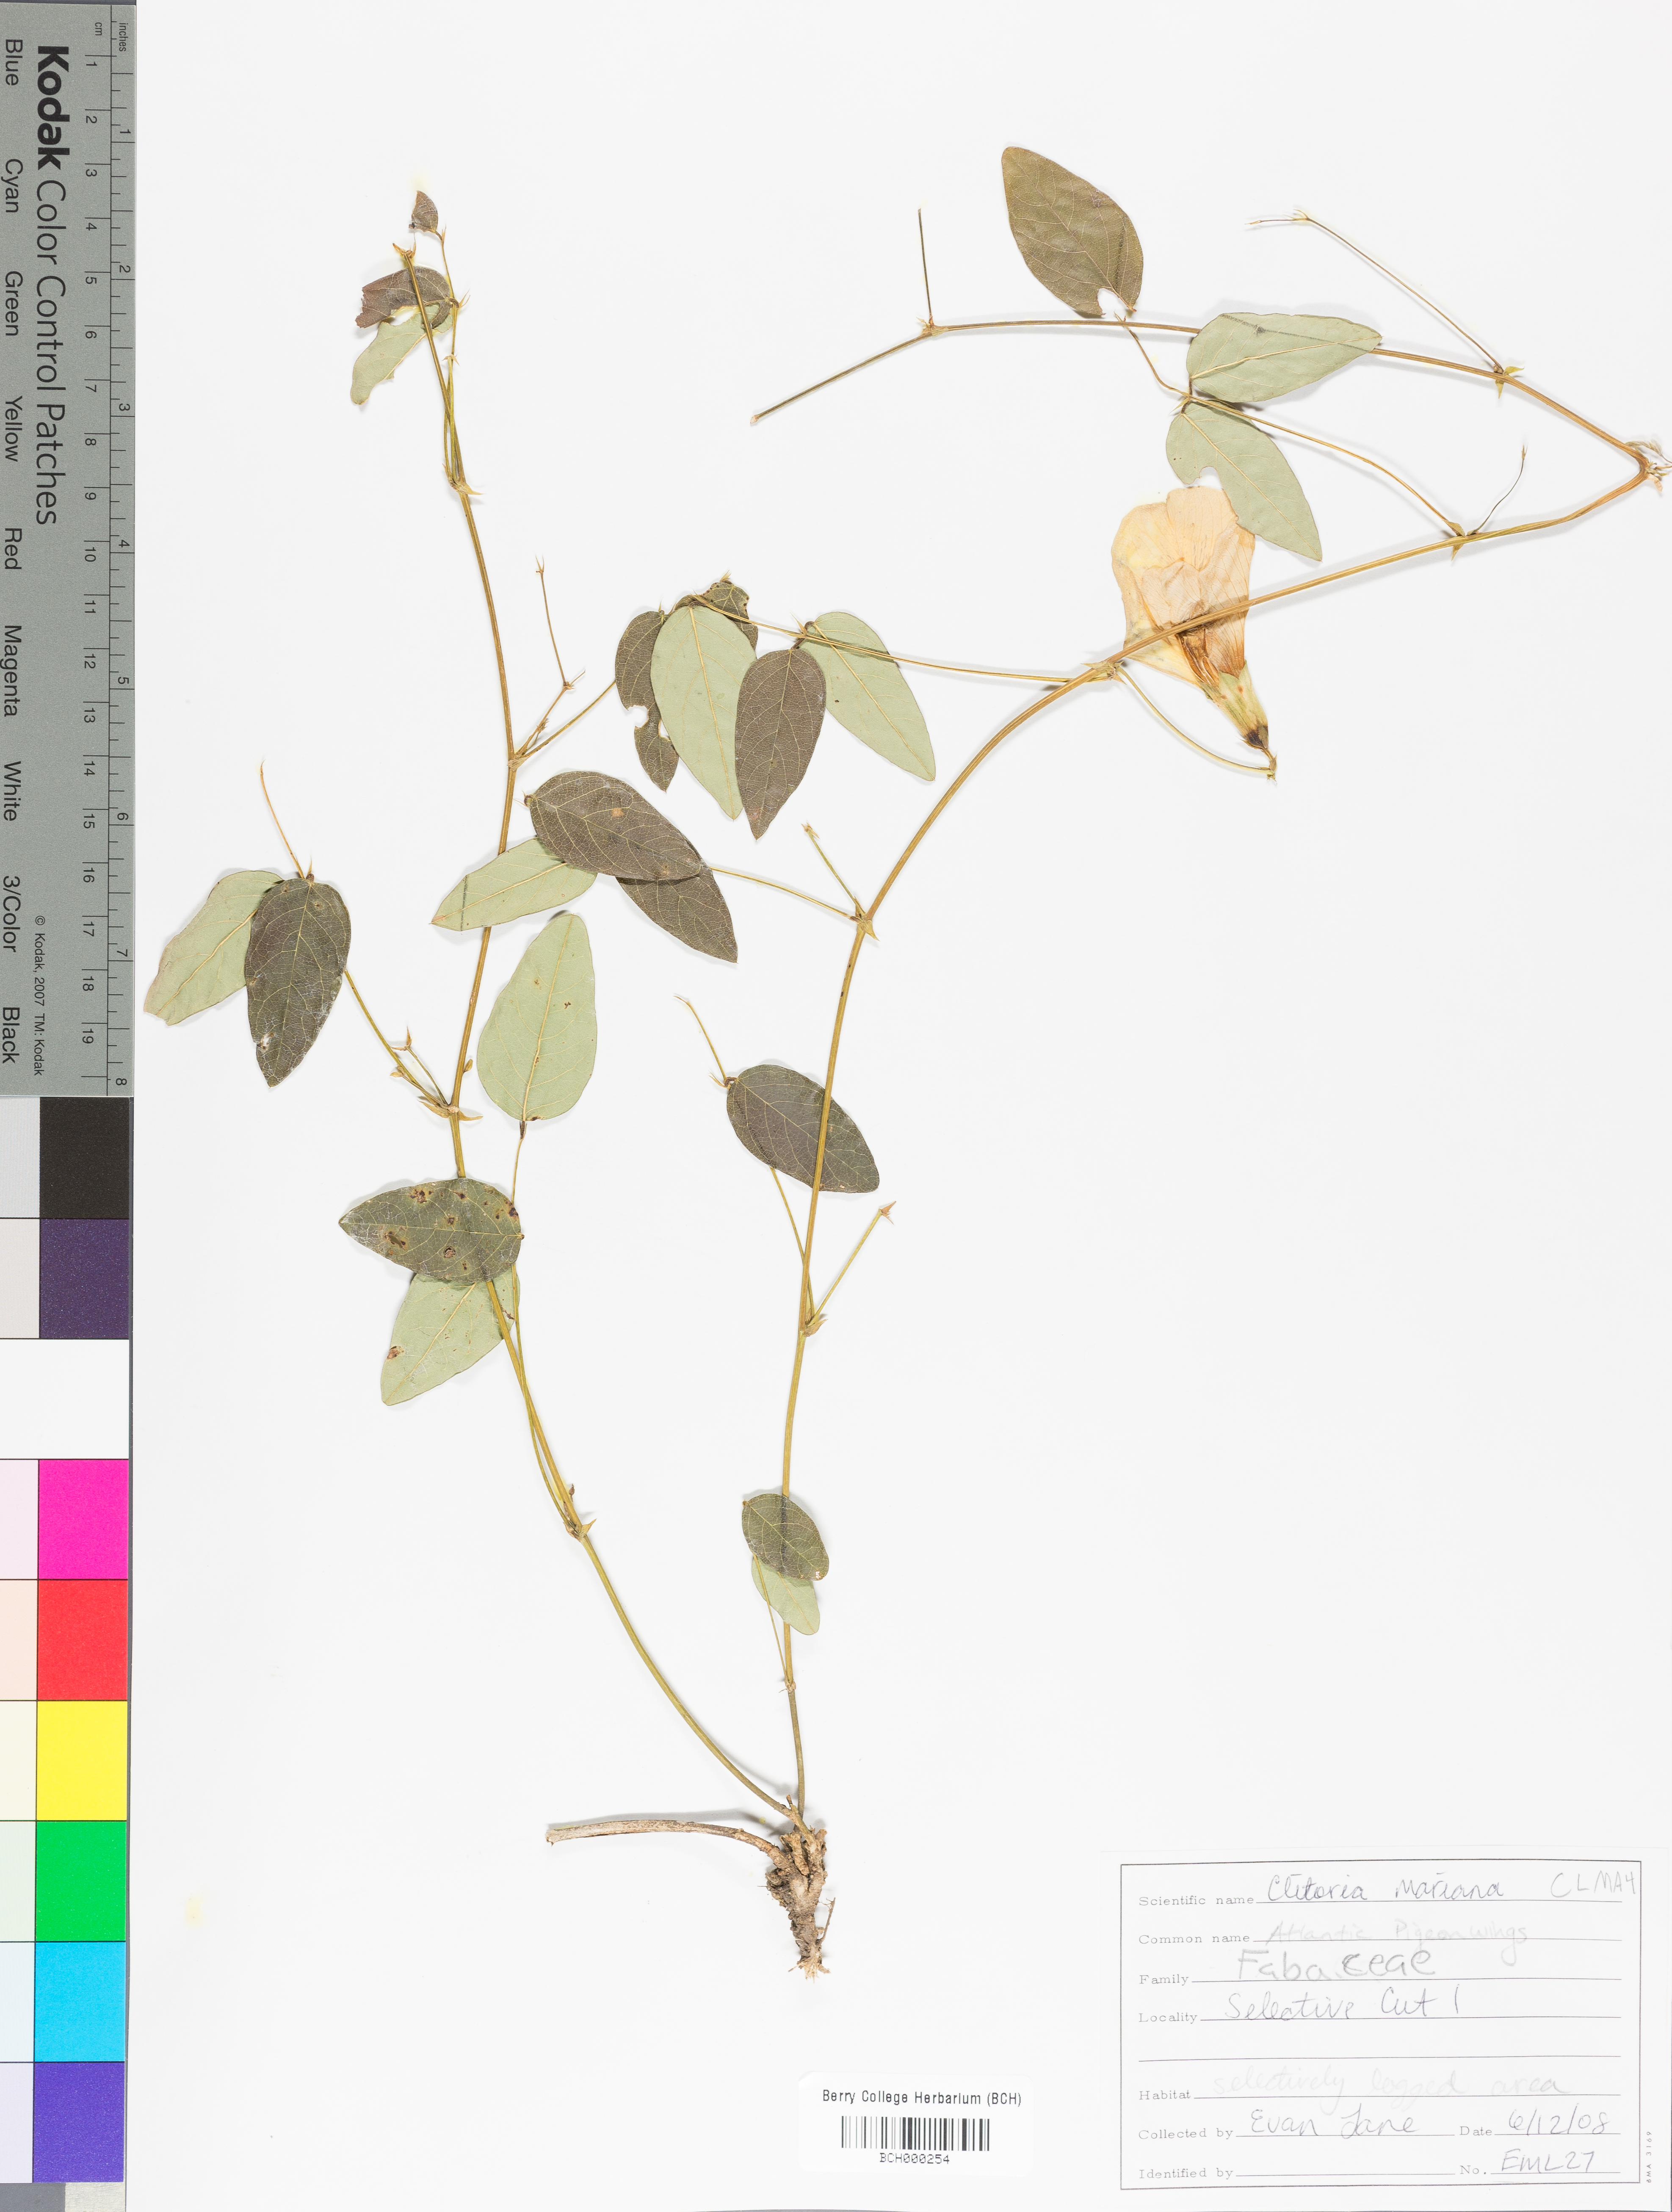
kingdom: Plantae
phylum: Tracheophyta
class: Magnoliopsida
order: Fabales
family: Fabaceae
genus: Clitoria
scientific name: Clitoria mariana
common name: Butterfly-pea
